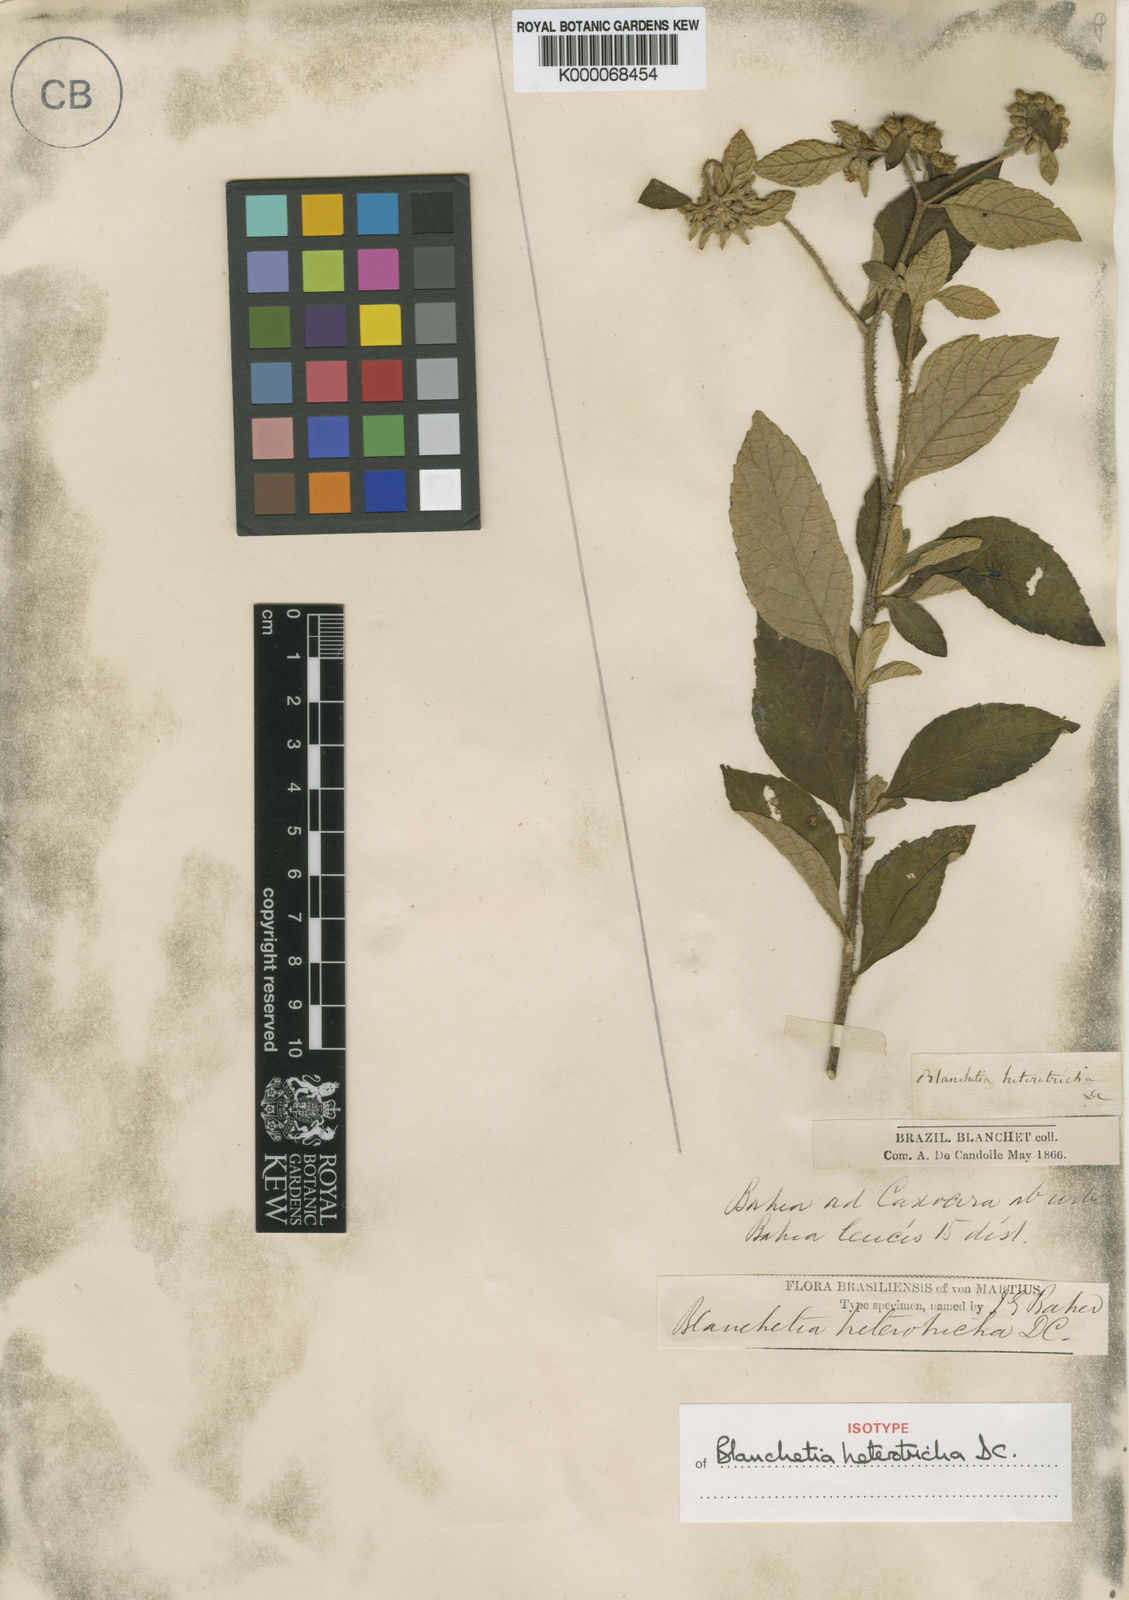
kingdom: Plantae
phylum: Tracheophyta
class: Magnoliopsida
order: Asterales
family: Asteraceae
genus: Blanchetia
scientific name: Blanchetia heterotricha
